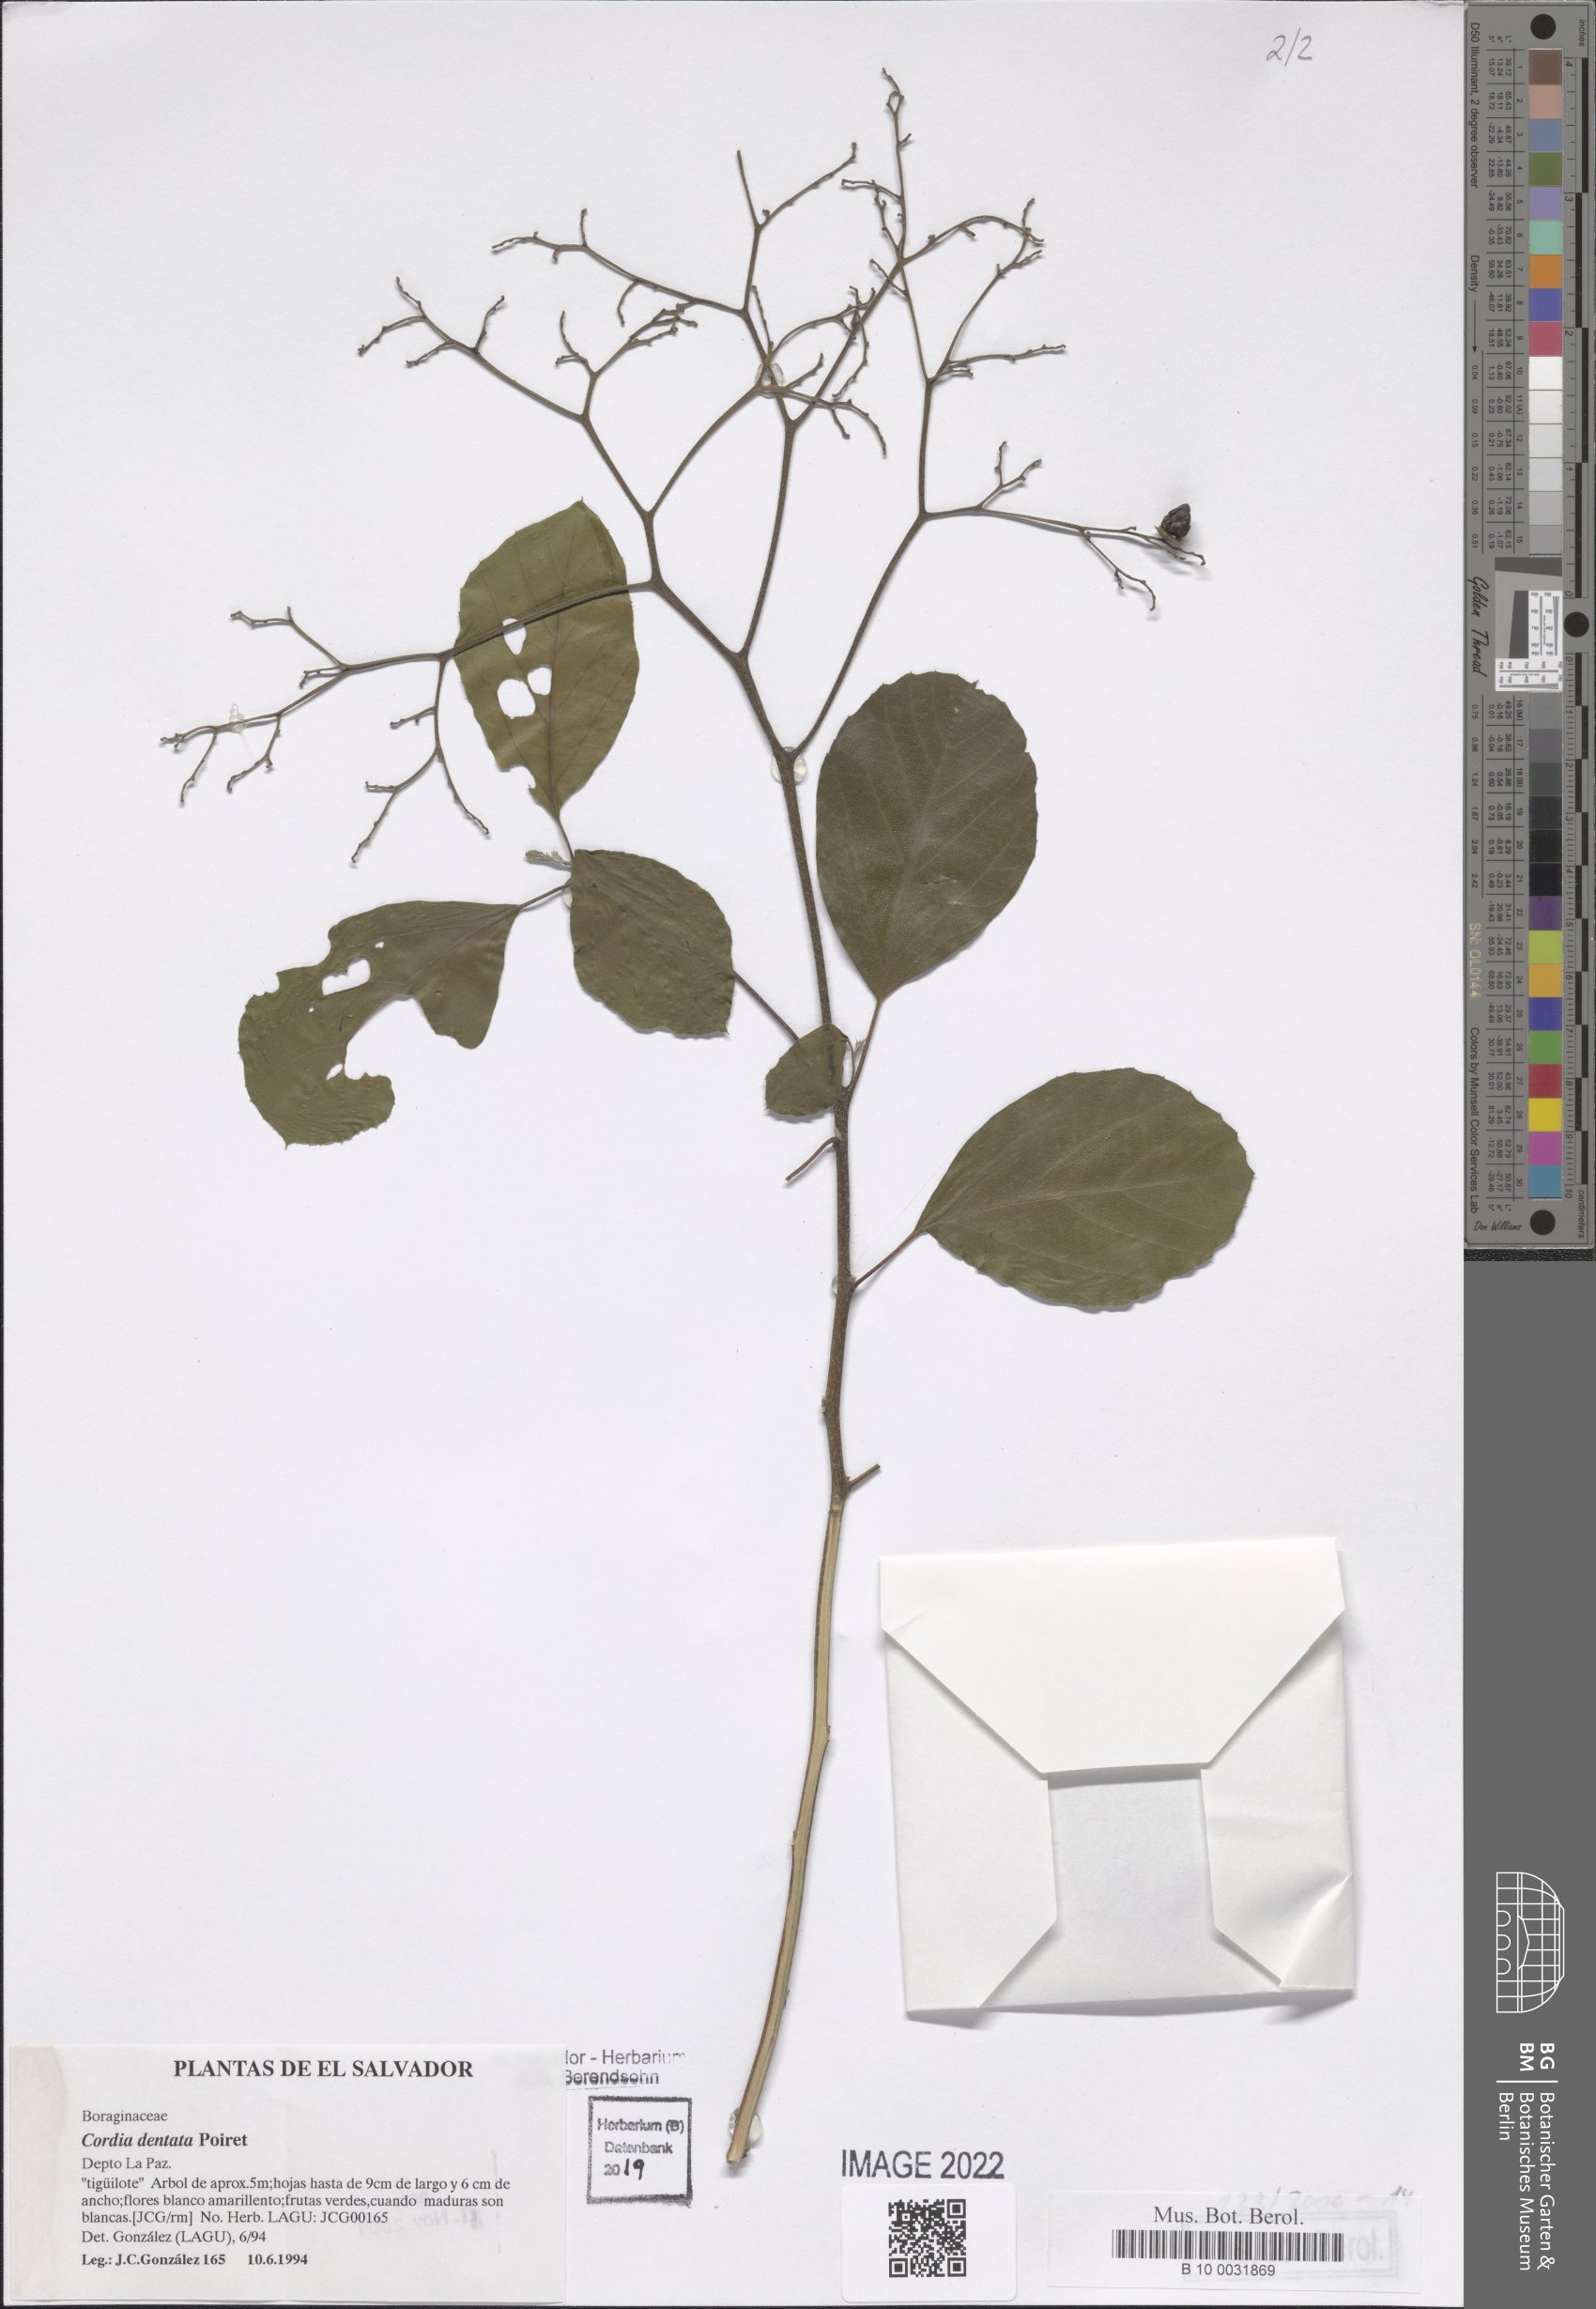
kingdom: Plantae
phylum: Tracheophyta
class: Magnoliopsida
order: Boraginales
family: Cordiaceae
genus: Cordia
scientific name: Cordia dentata
